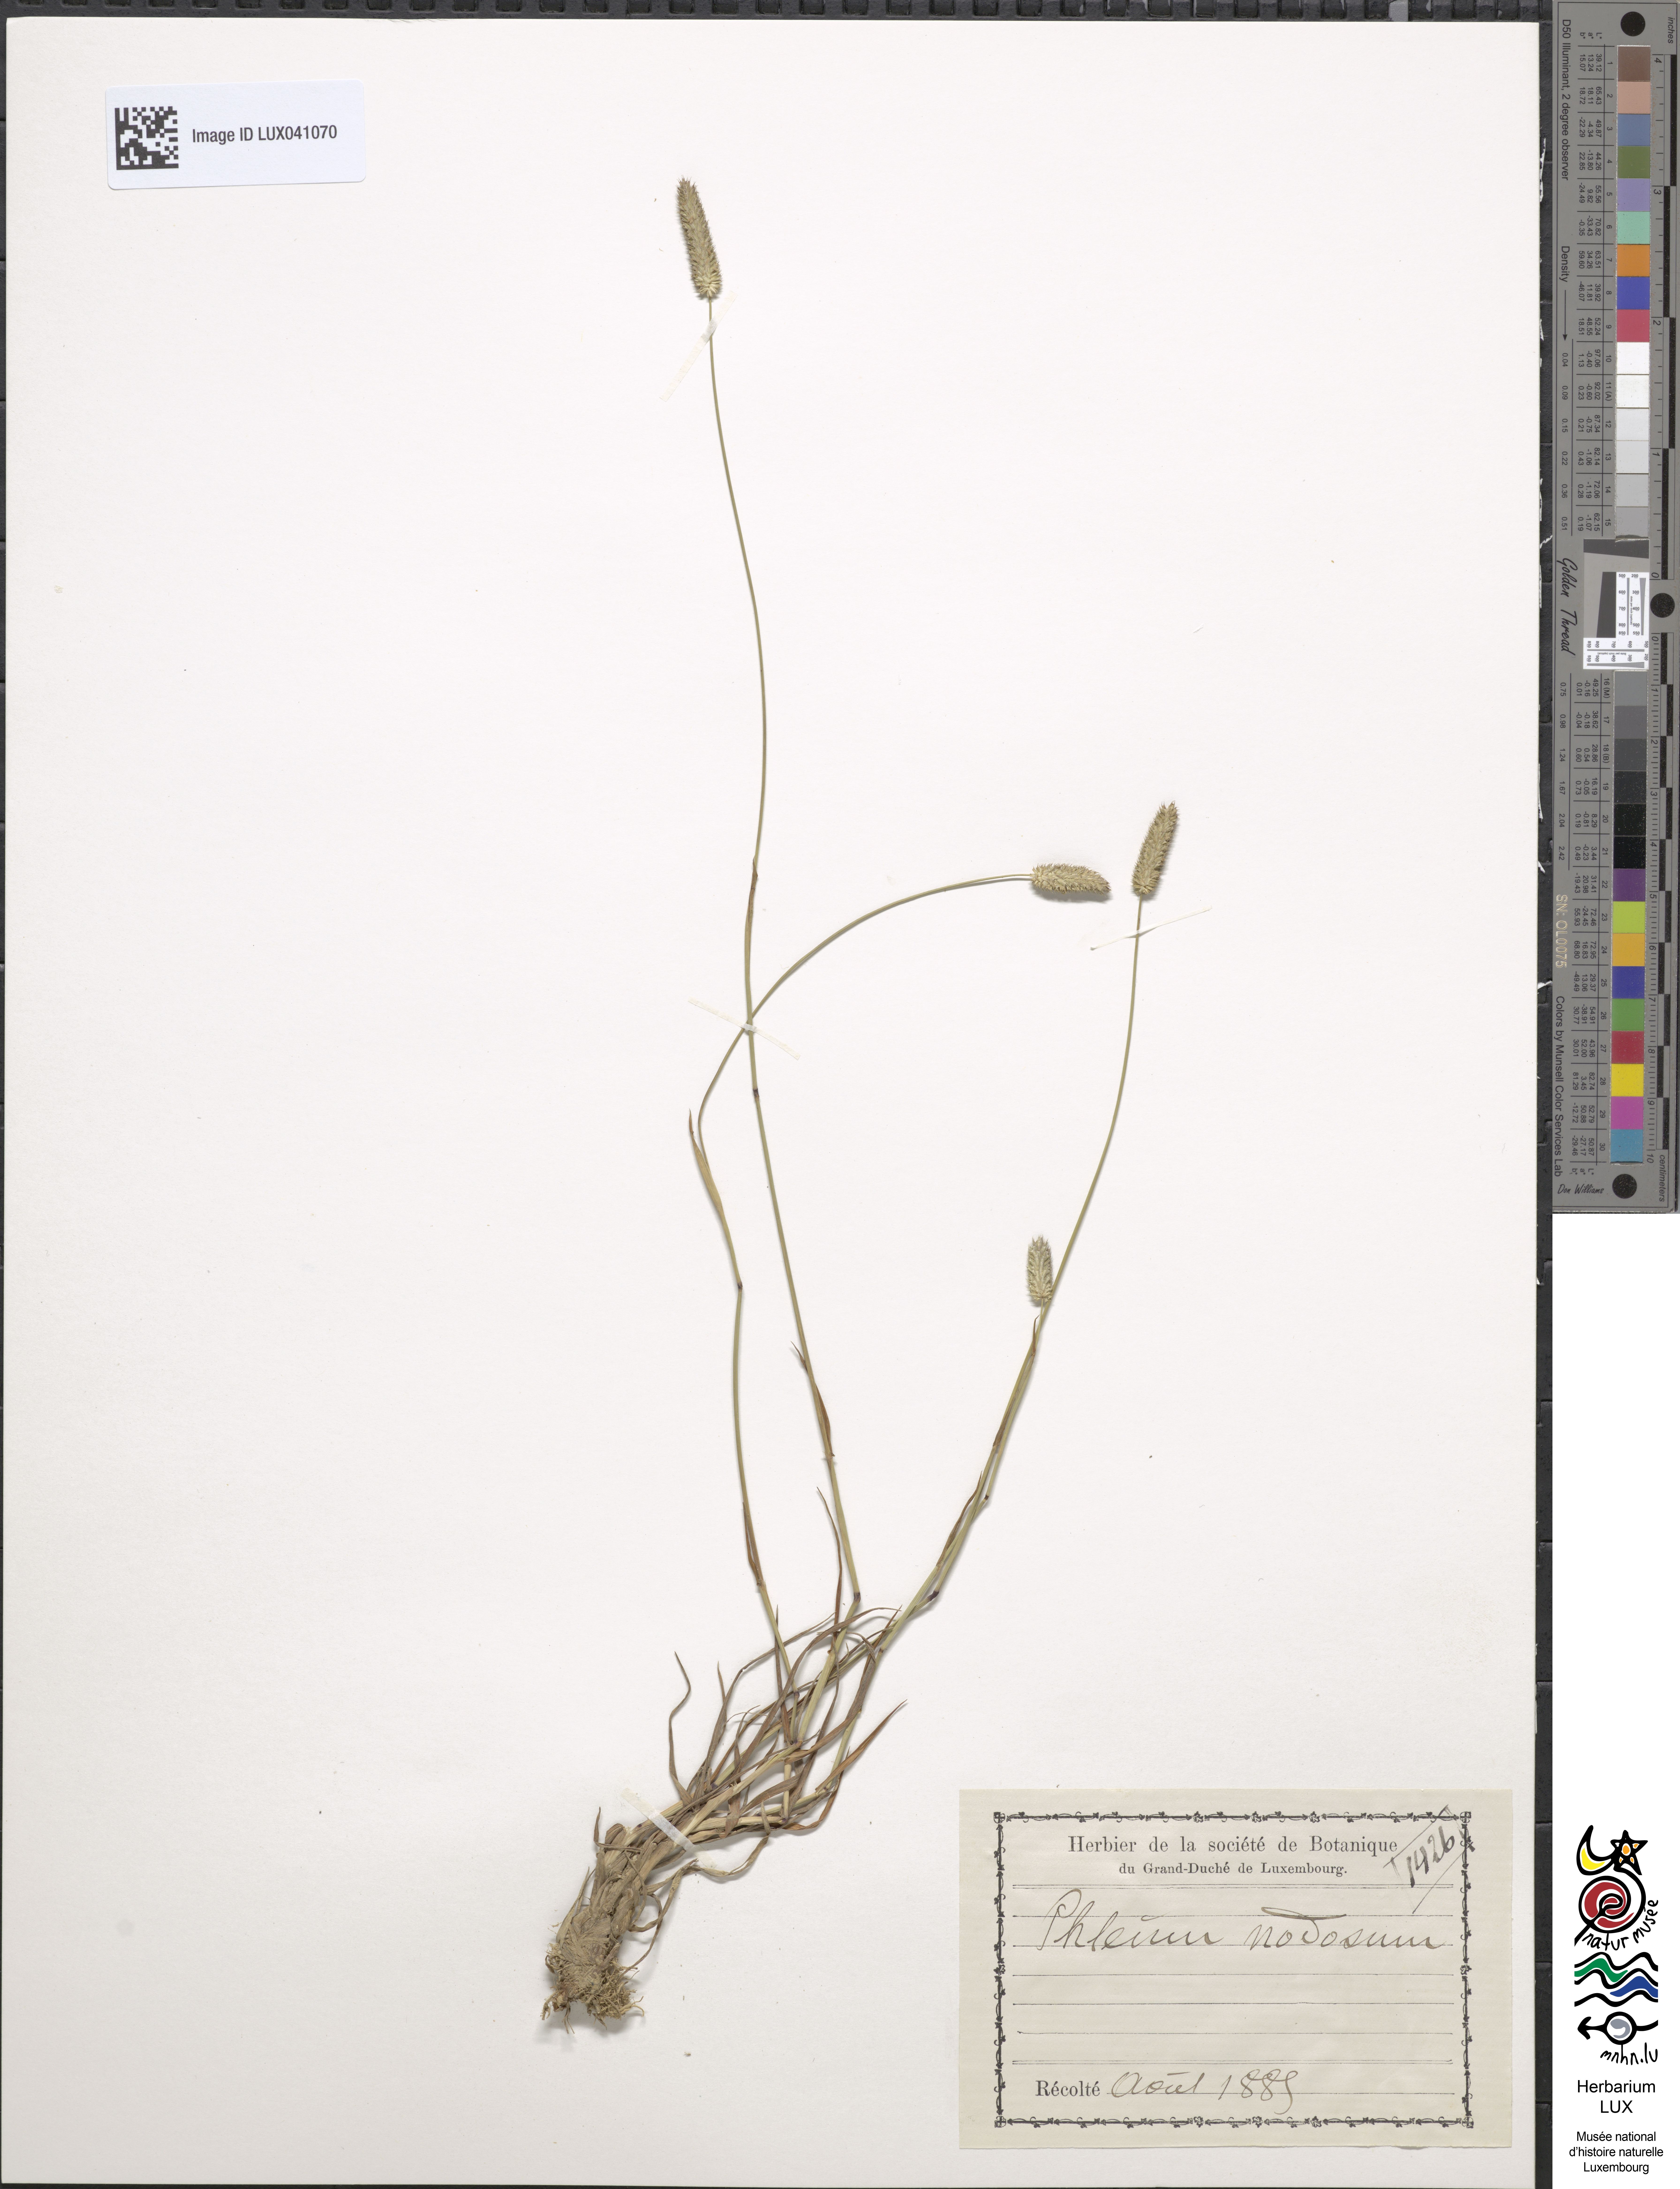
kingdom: Plantae
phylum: Tracheophyta
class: Liliopsida
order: Poales
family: Poaceae
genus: Phleum
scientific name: Phleum pratense
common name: Timothy grass
